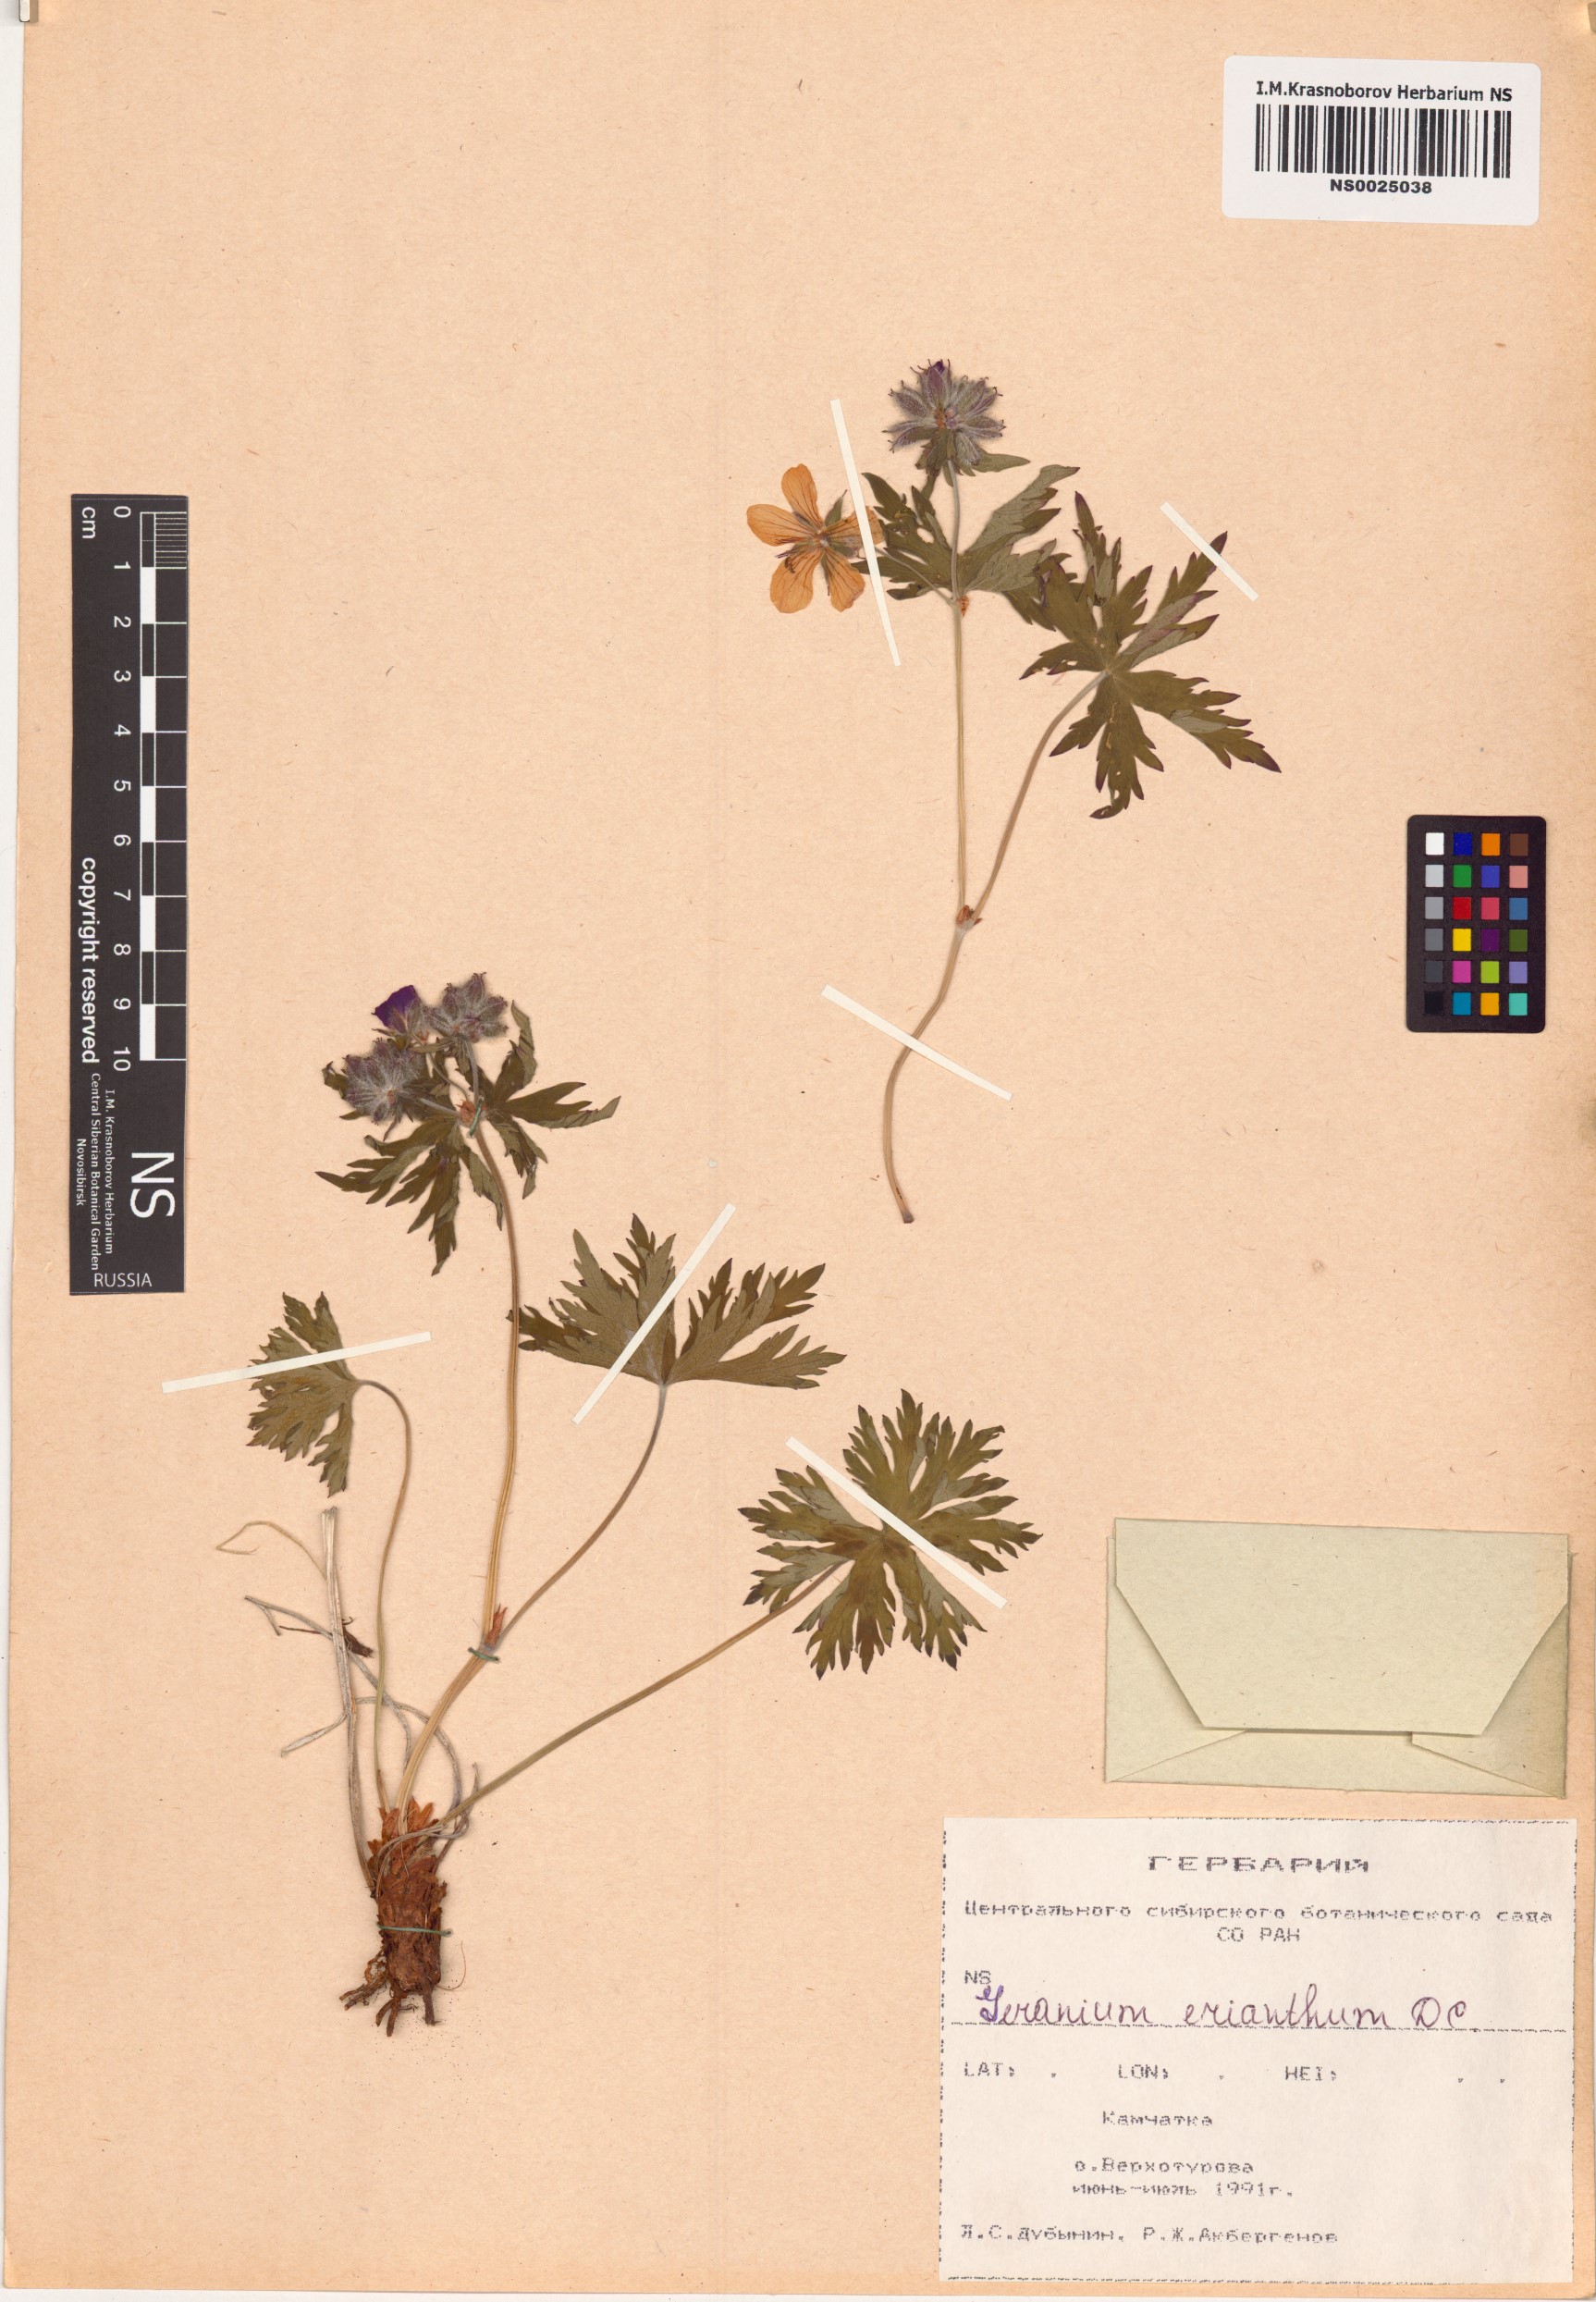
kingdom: Plantae
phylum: Tracheophyta
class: Magnoliopsida
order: Geraniales
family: Geraniaceae
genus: Geranium
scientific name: Geranium erianthum
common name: Northern crane's-bill
